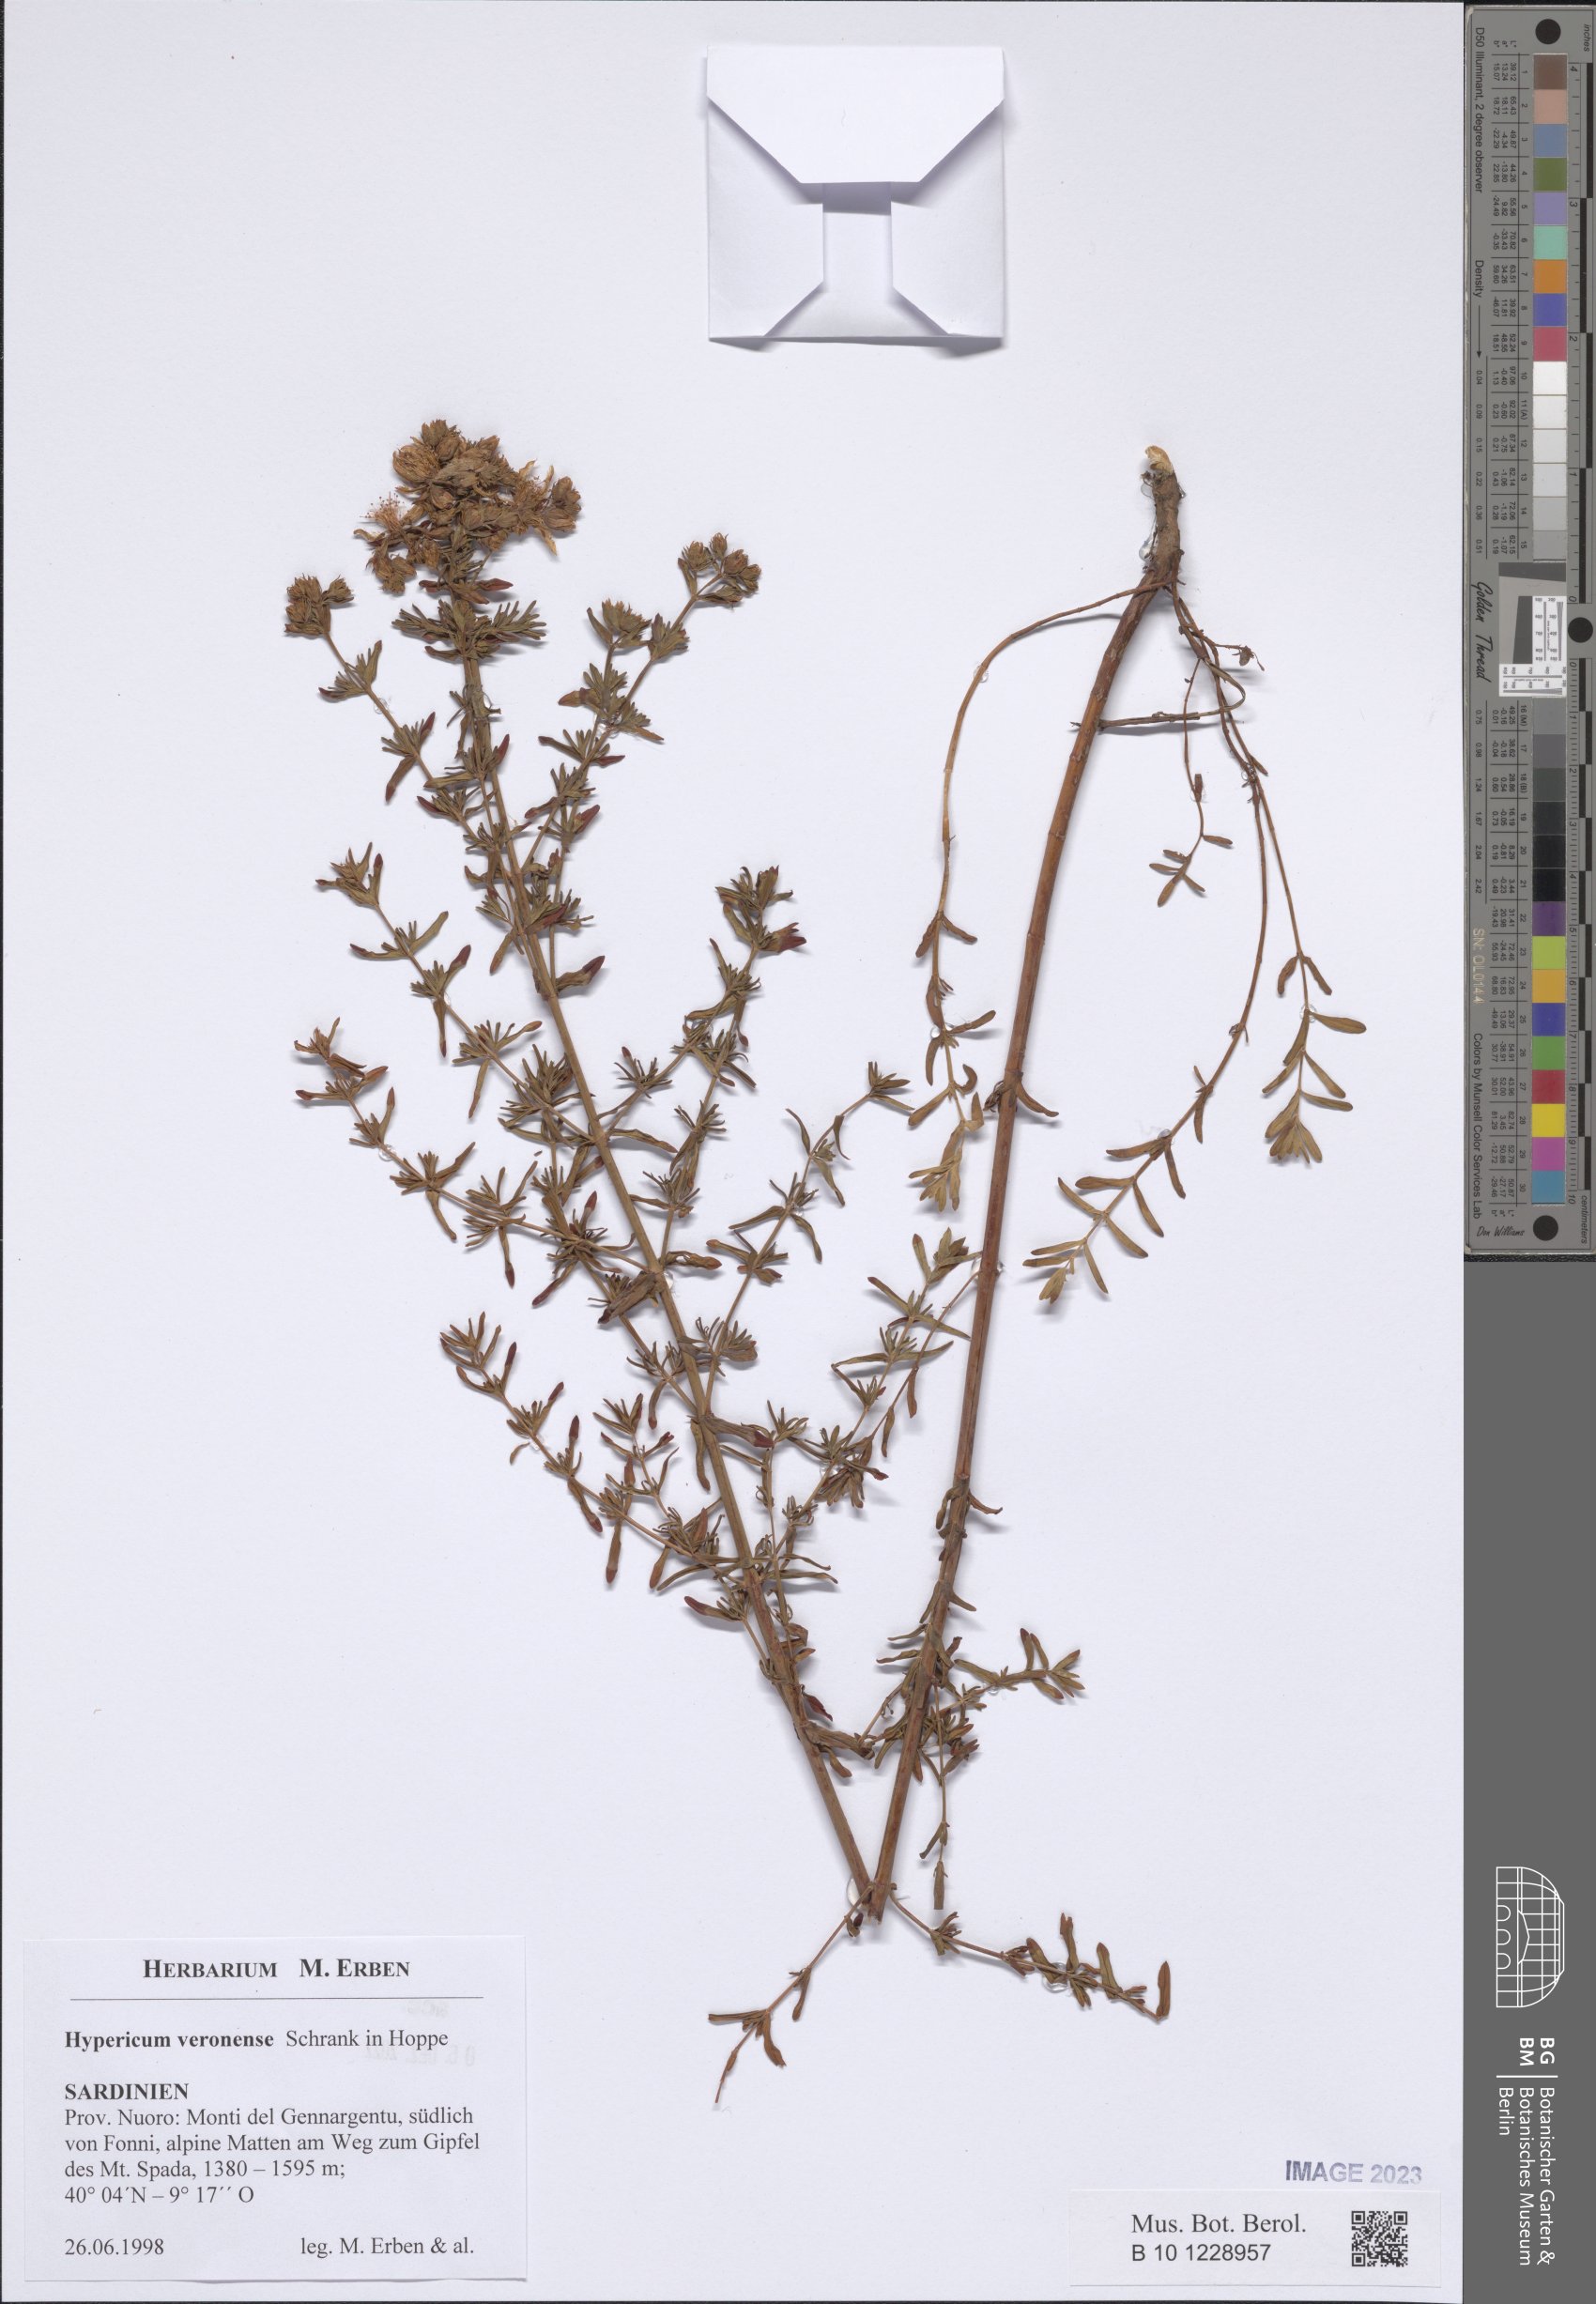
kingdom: Plantae
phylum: Tracheophyta
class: Magnoliopsida
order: Malpighiales
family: Hypericaceae
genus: Hypericum
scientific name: Hypericum veronense
